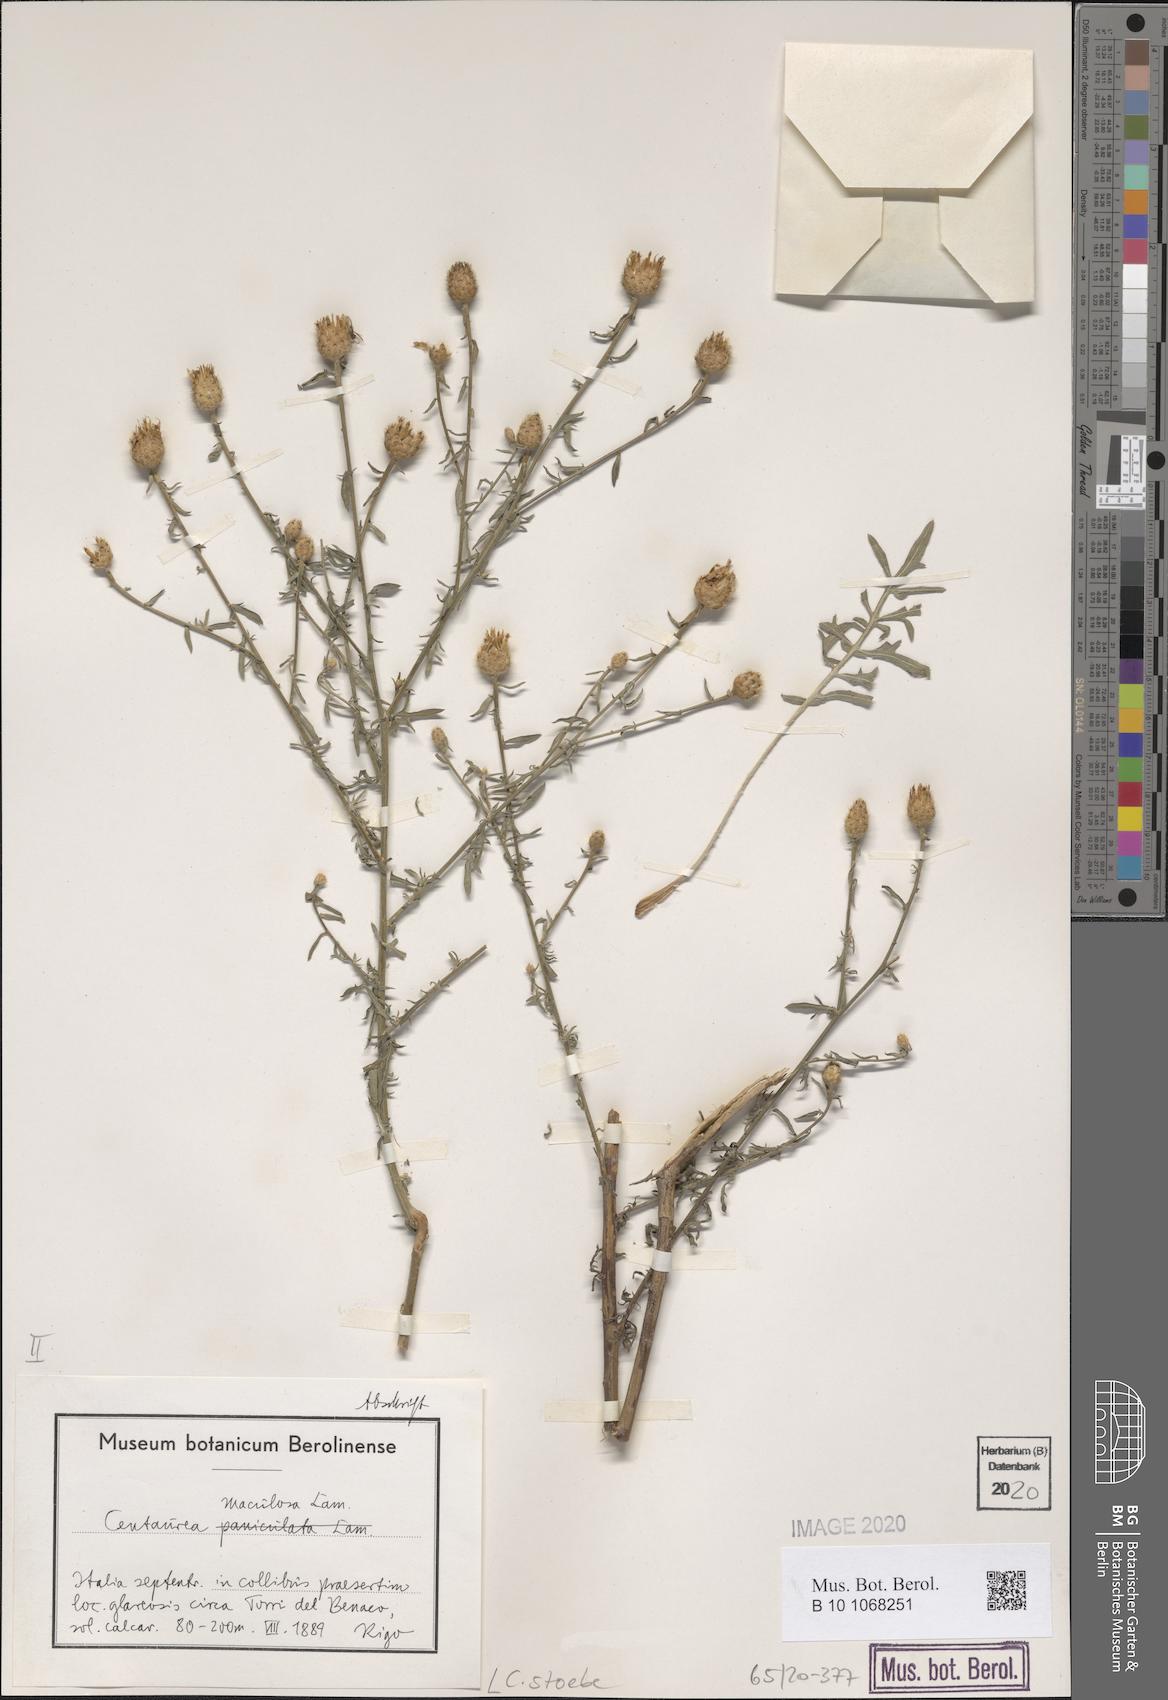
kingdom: Plantae
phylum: Tracheophyta
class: Magnoliopsida
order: Asterales
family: Asteraceae
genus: Centaurea
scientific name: Centaurea stoebe
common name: Spotted knapweed
